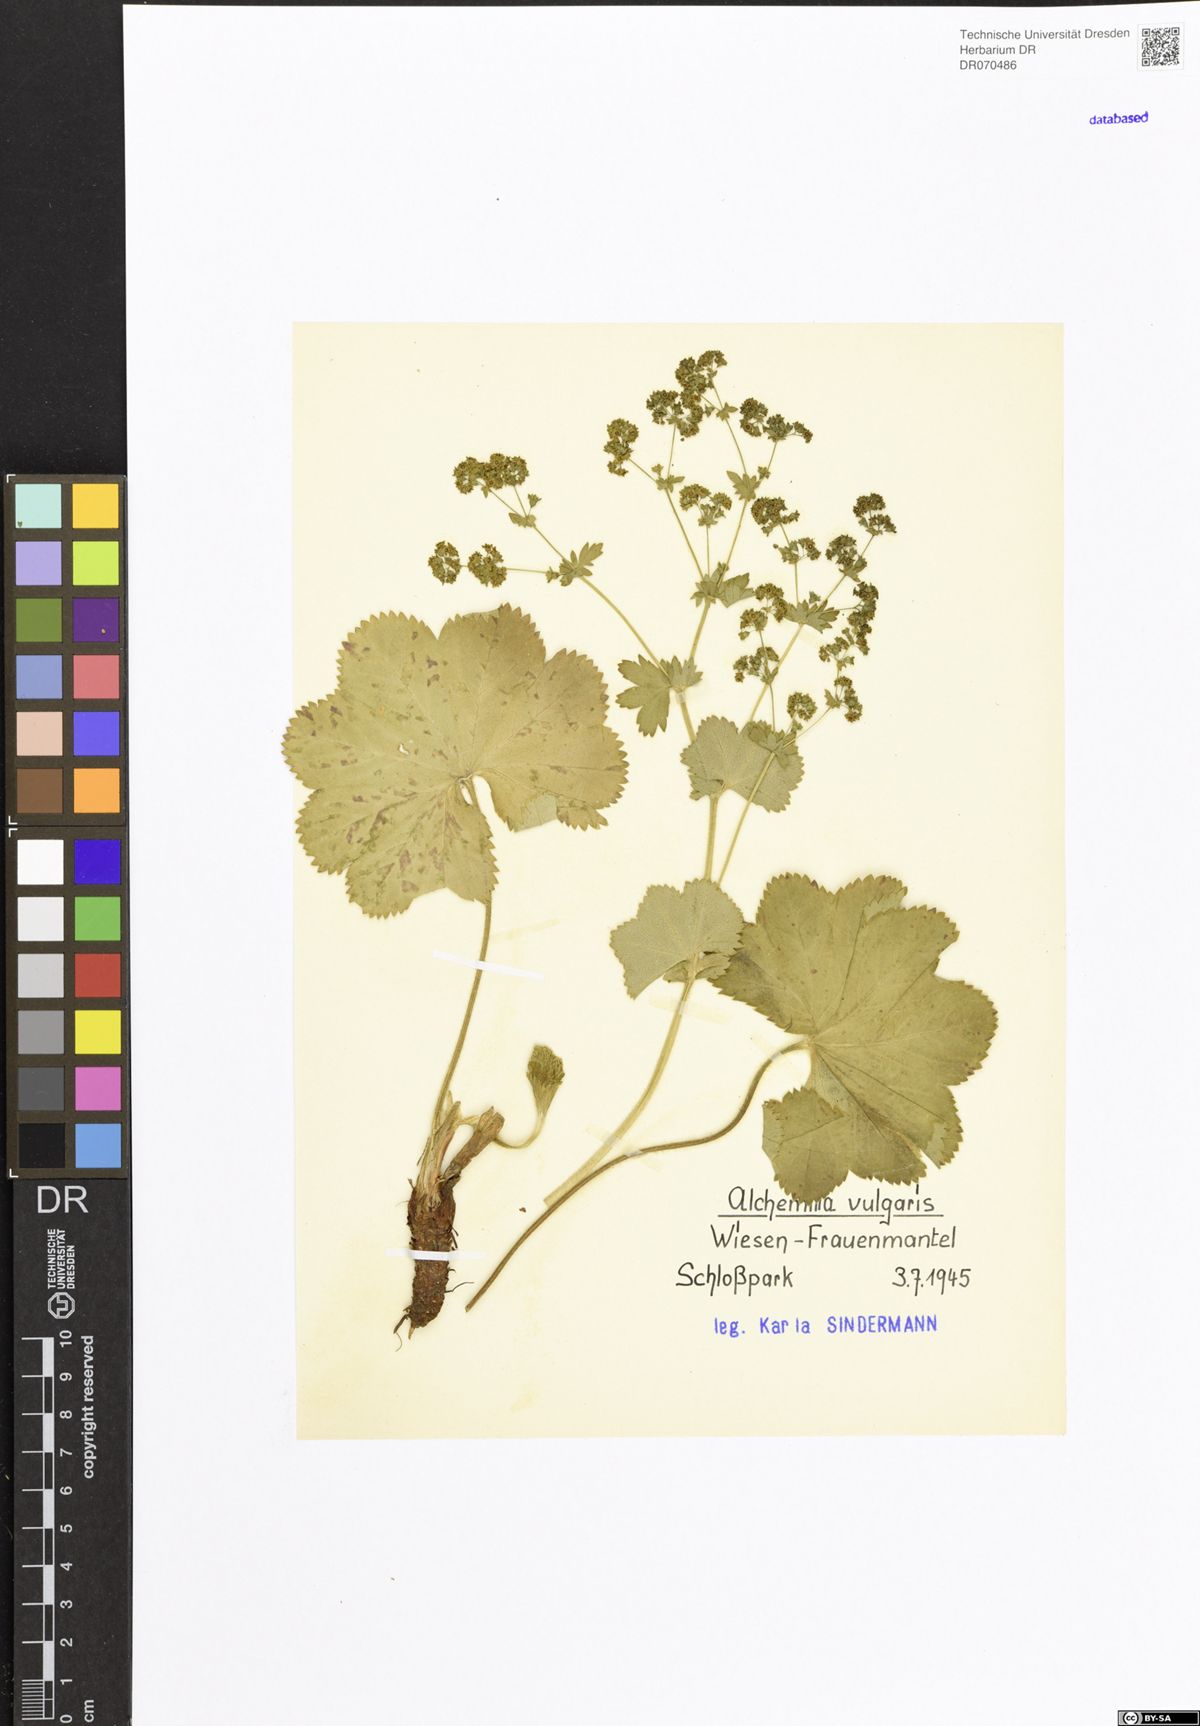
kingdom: Plantae
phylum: Tracheophyta
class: Magnoliopsida
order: Rosales
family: Rosaceae
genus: Alchemilla
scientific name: Alchemilla vulgaris
